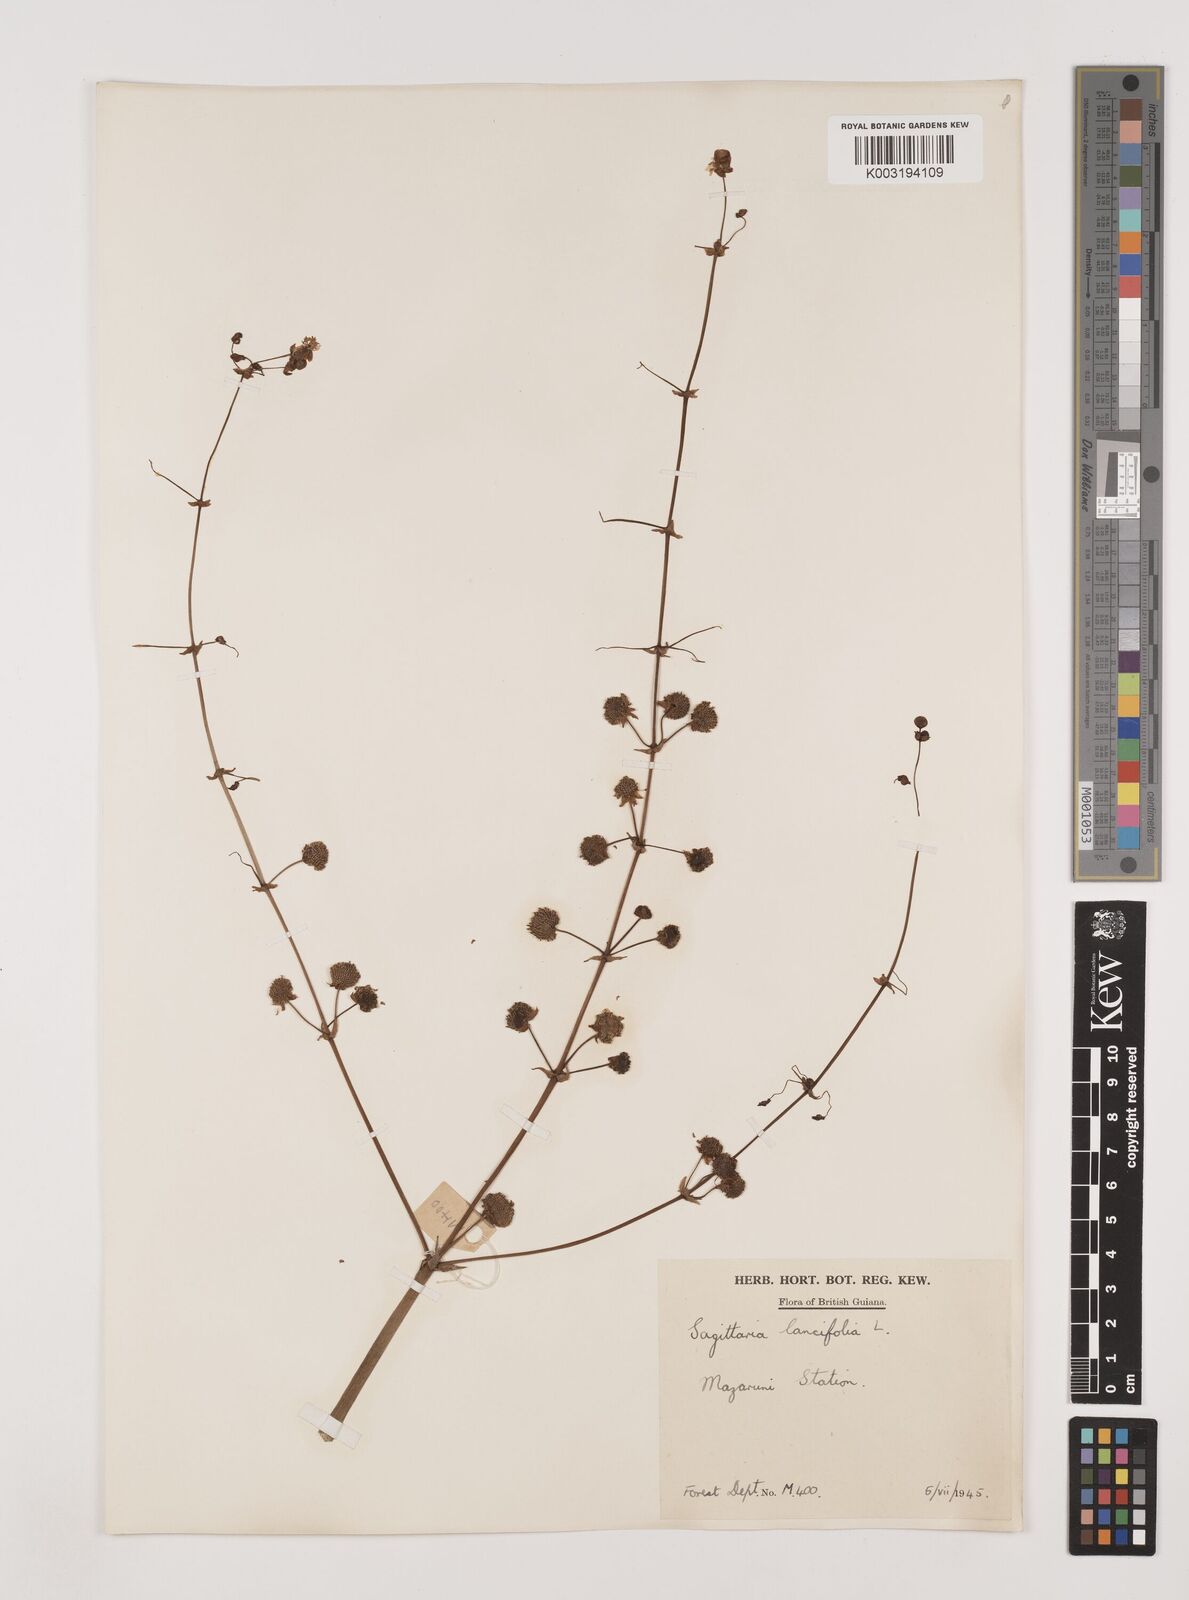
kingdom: Plantae
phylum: Tracheophyta
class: Liliopsida
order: Alismatales
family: Alismataceae
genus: Sagittaria
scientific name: Sagittaria lancifolia
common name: Lance-leaf arrowhead
